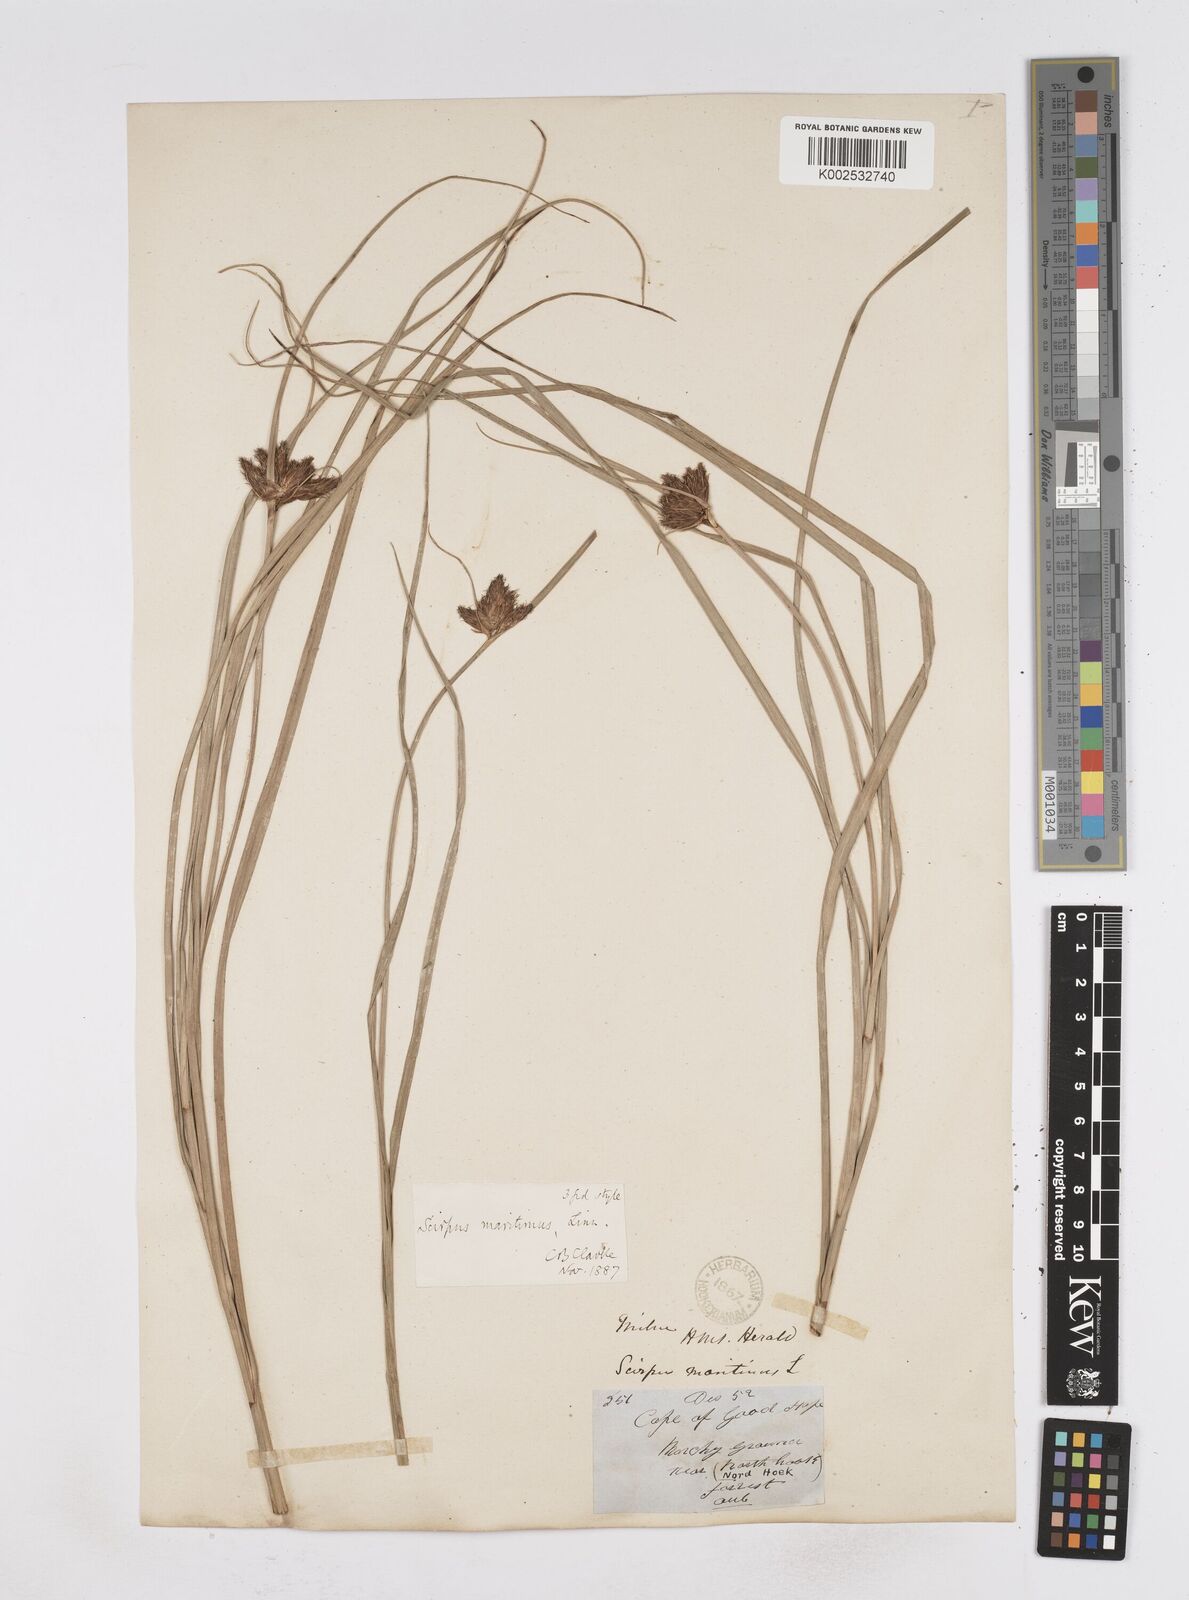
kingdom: Plantae
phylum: Tracheophyta
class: Liliopsida
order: Poales
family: Cyperaceae
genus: Bolboschoenus
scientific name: Bolboschoenus maritimus
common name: Sea club-rush
